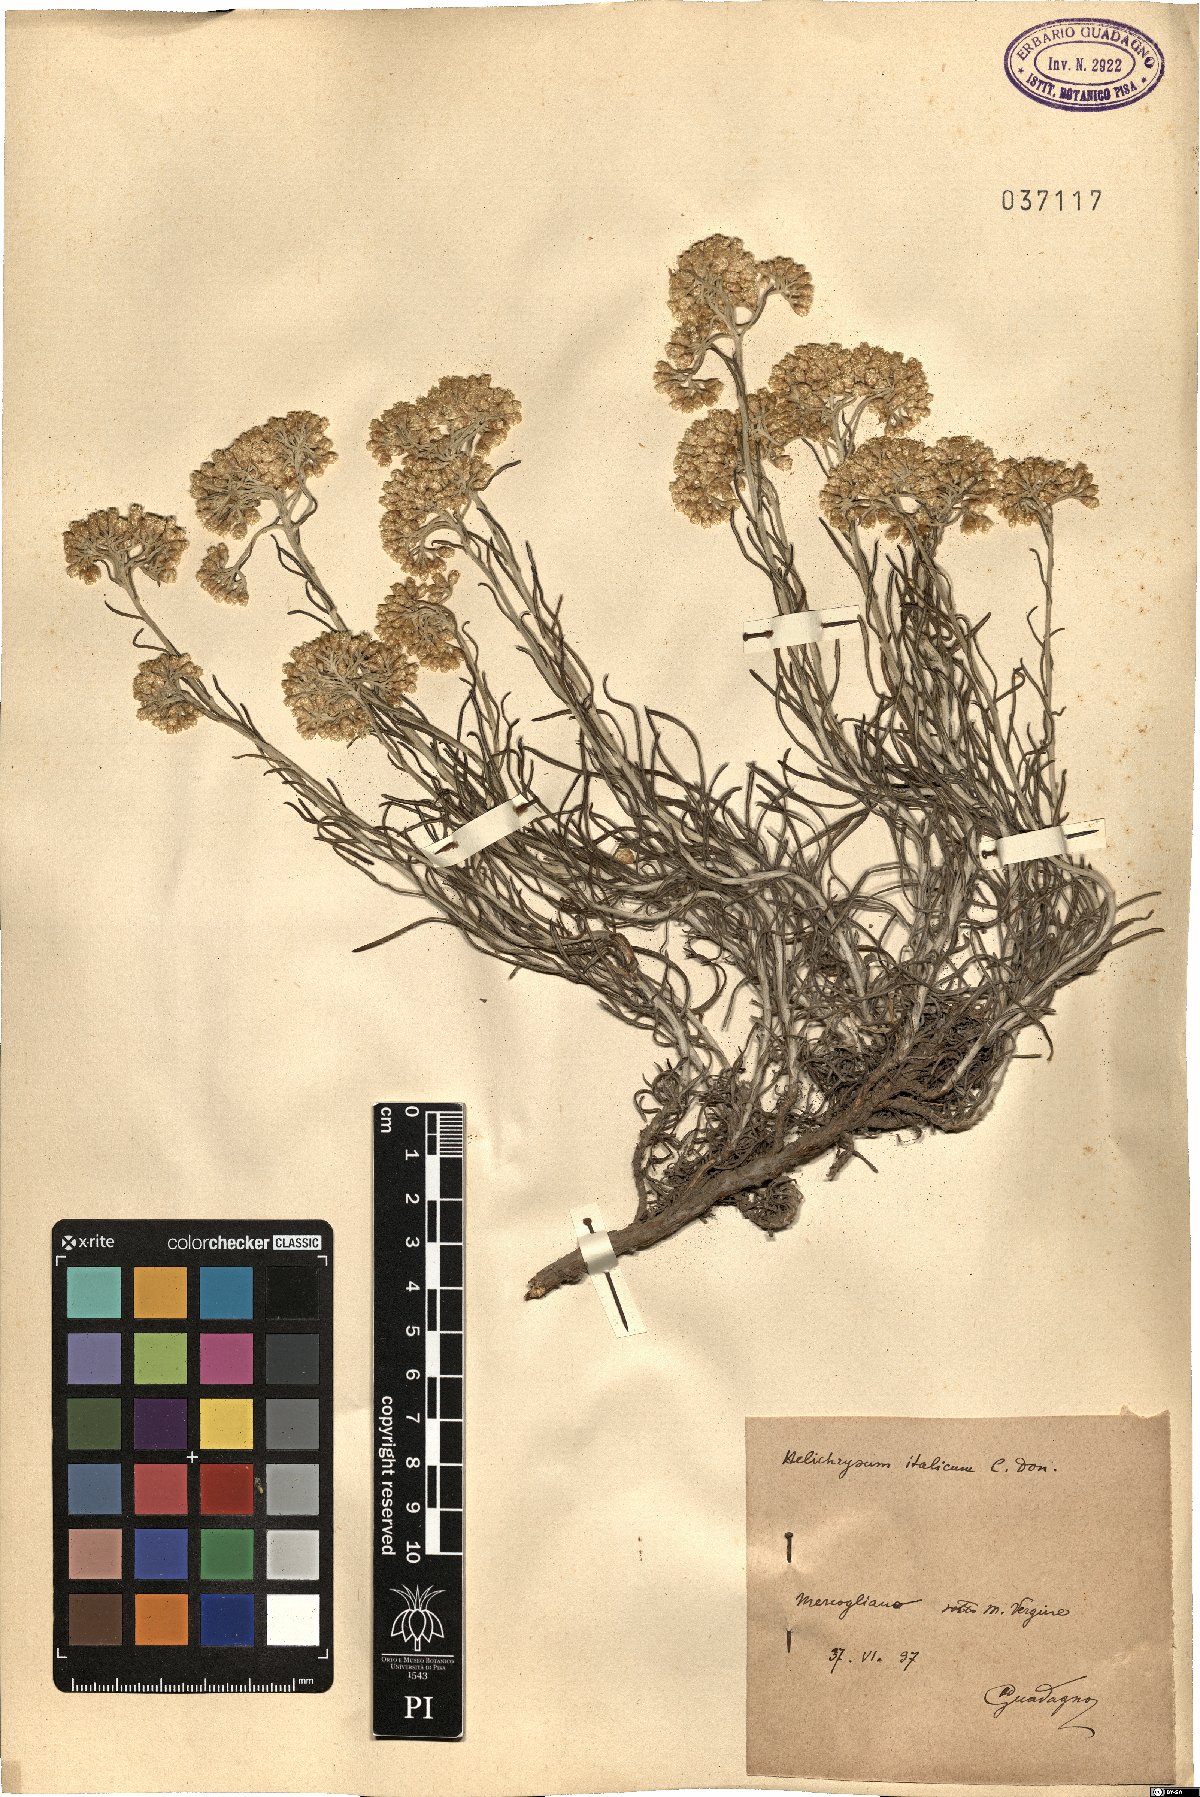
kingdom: Plantae
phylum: Tracheophyta
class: Magnoliopsida
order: Asterales
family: Asteraceae
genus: Helichrysum
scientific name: Helichrysum italicum
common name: Curryplant
